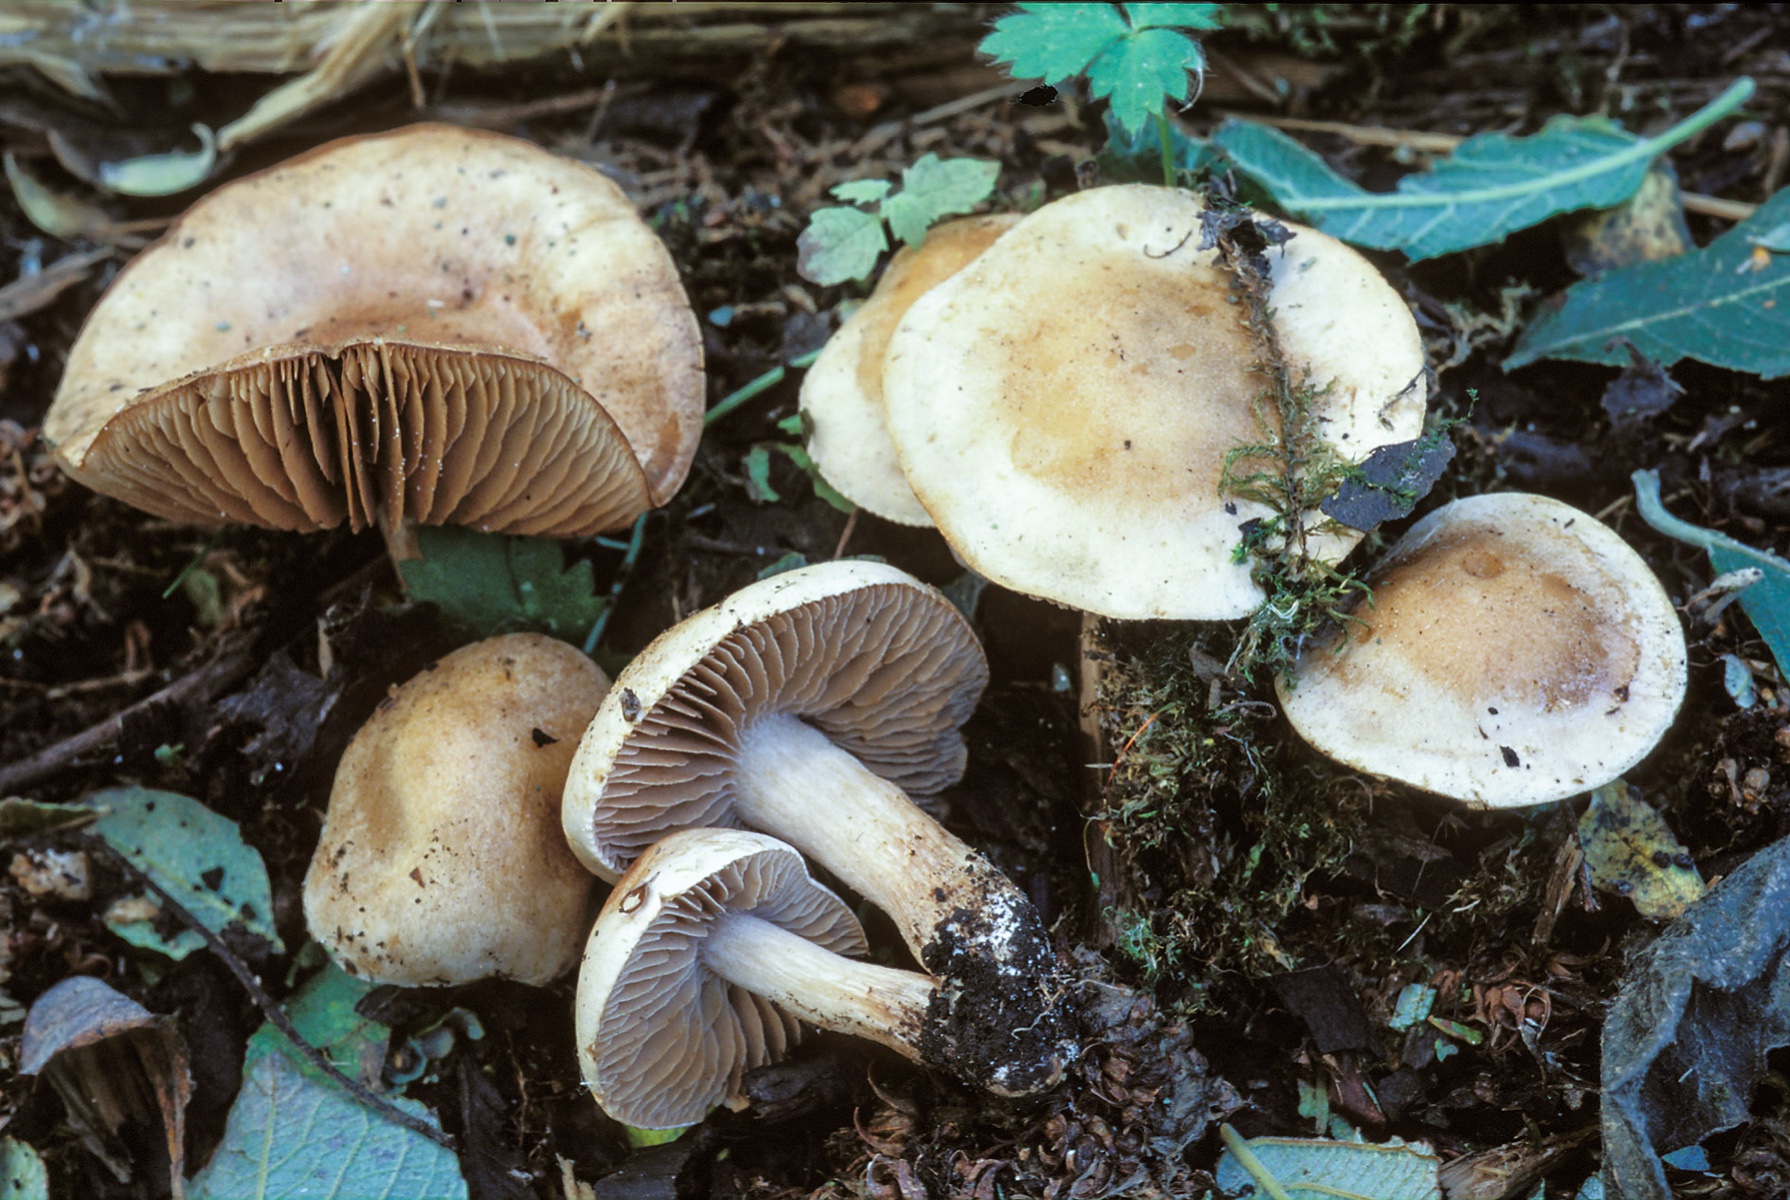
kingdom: Fungi
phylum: Basidiomycota
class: Agaricomycetes
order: Agaricales
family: Hymenogastraceae
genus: Hebeloma
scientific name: Hebeloma nauseosum
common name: storsporet tåreblad
